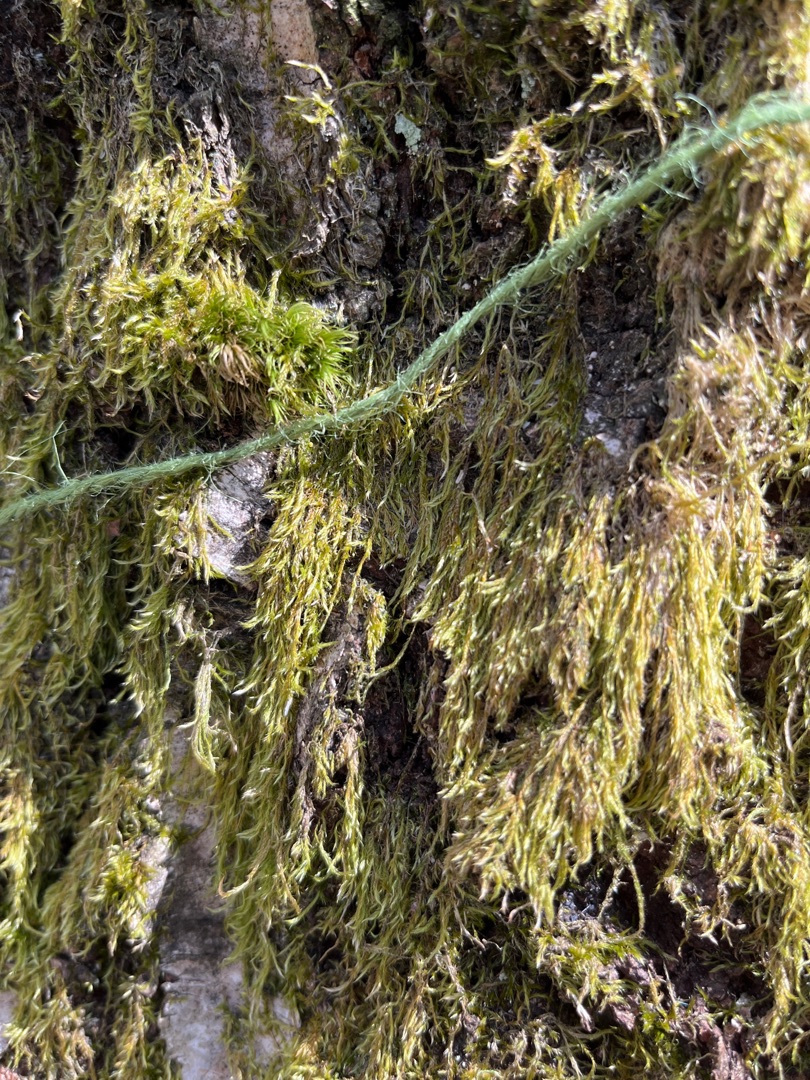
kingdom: Plantae
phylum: Bryophyta
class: Bryopsida
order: Hypnales
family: Hypnaceae
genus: Hypnum
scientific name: Hypnum
